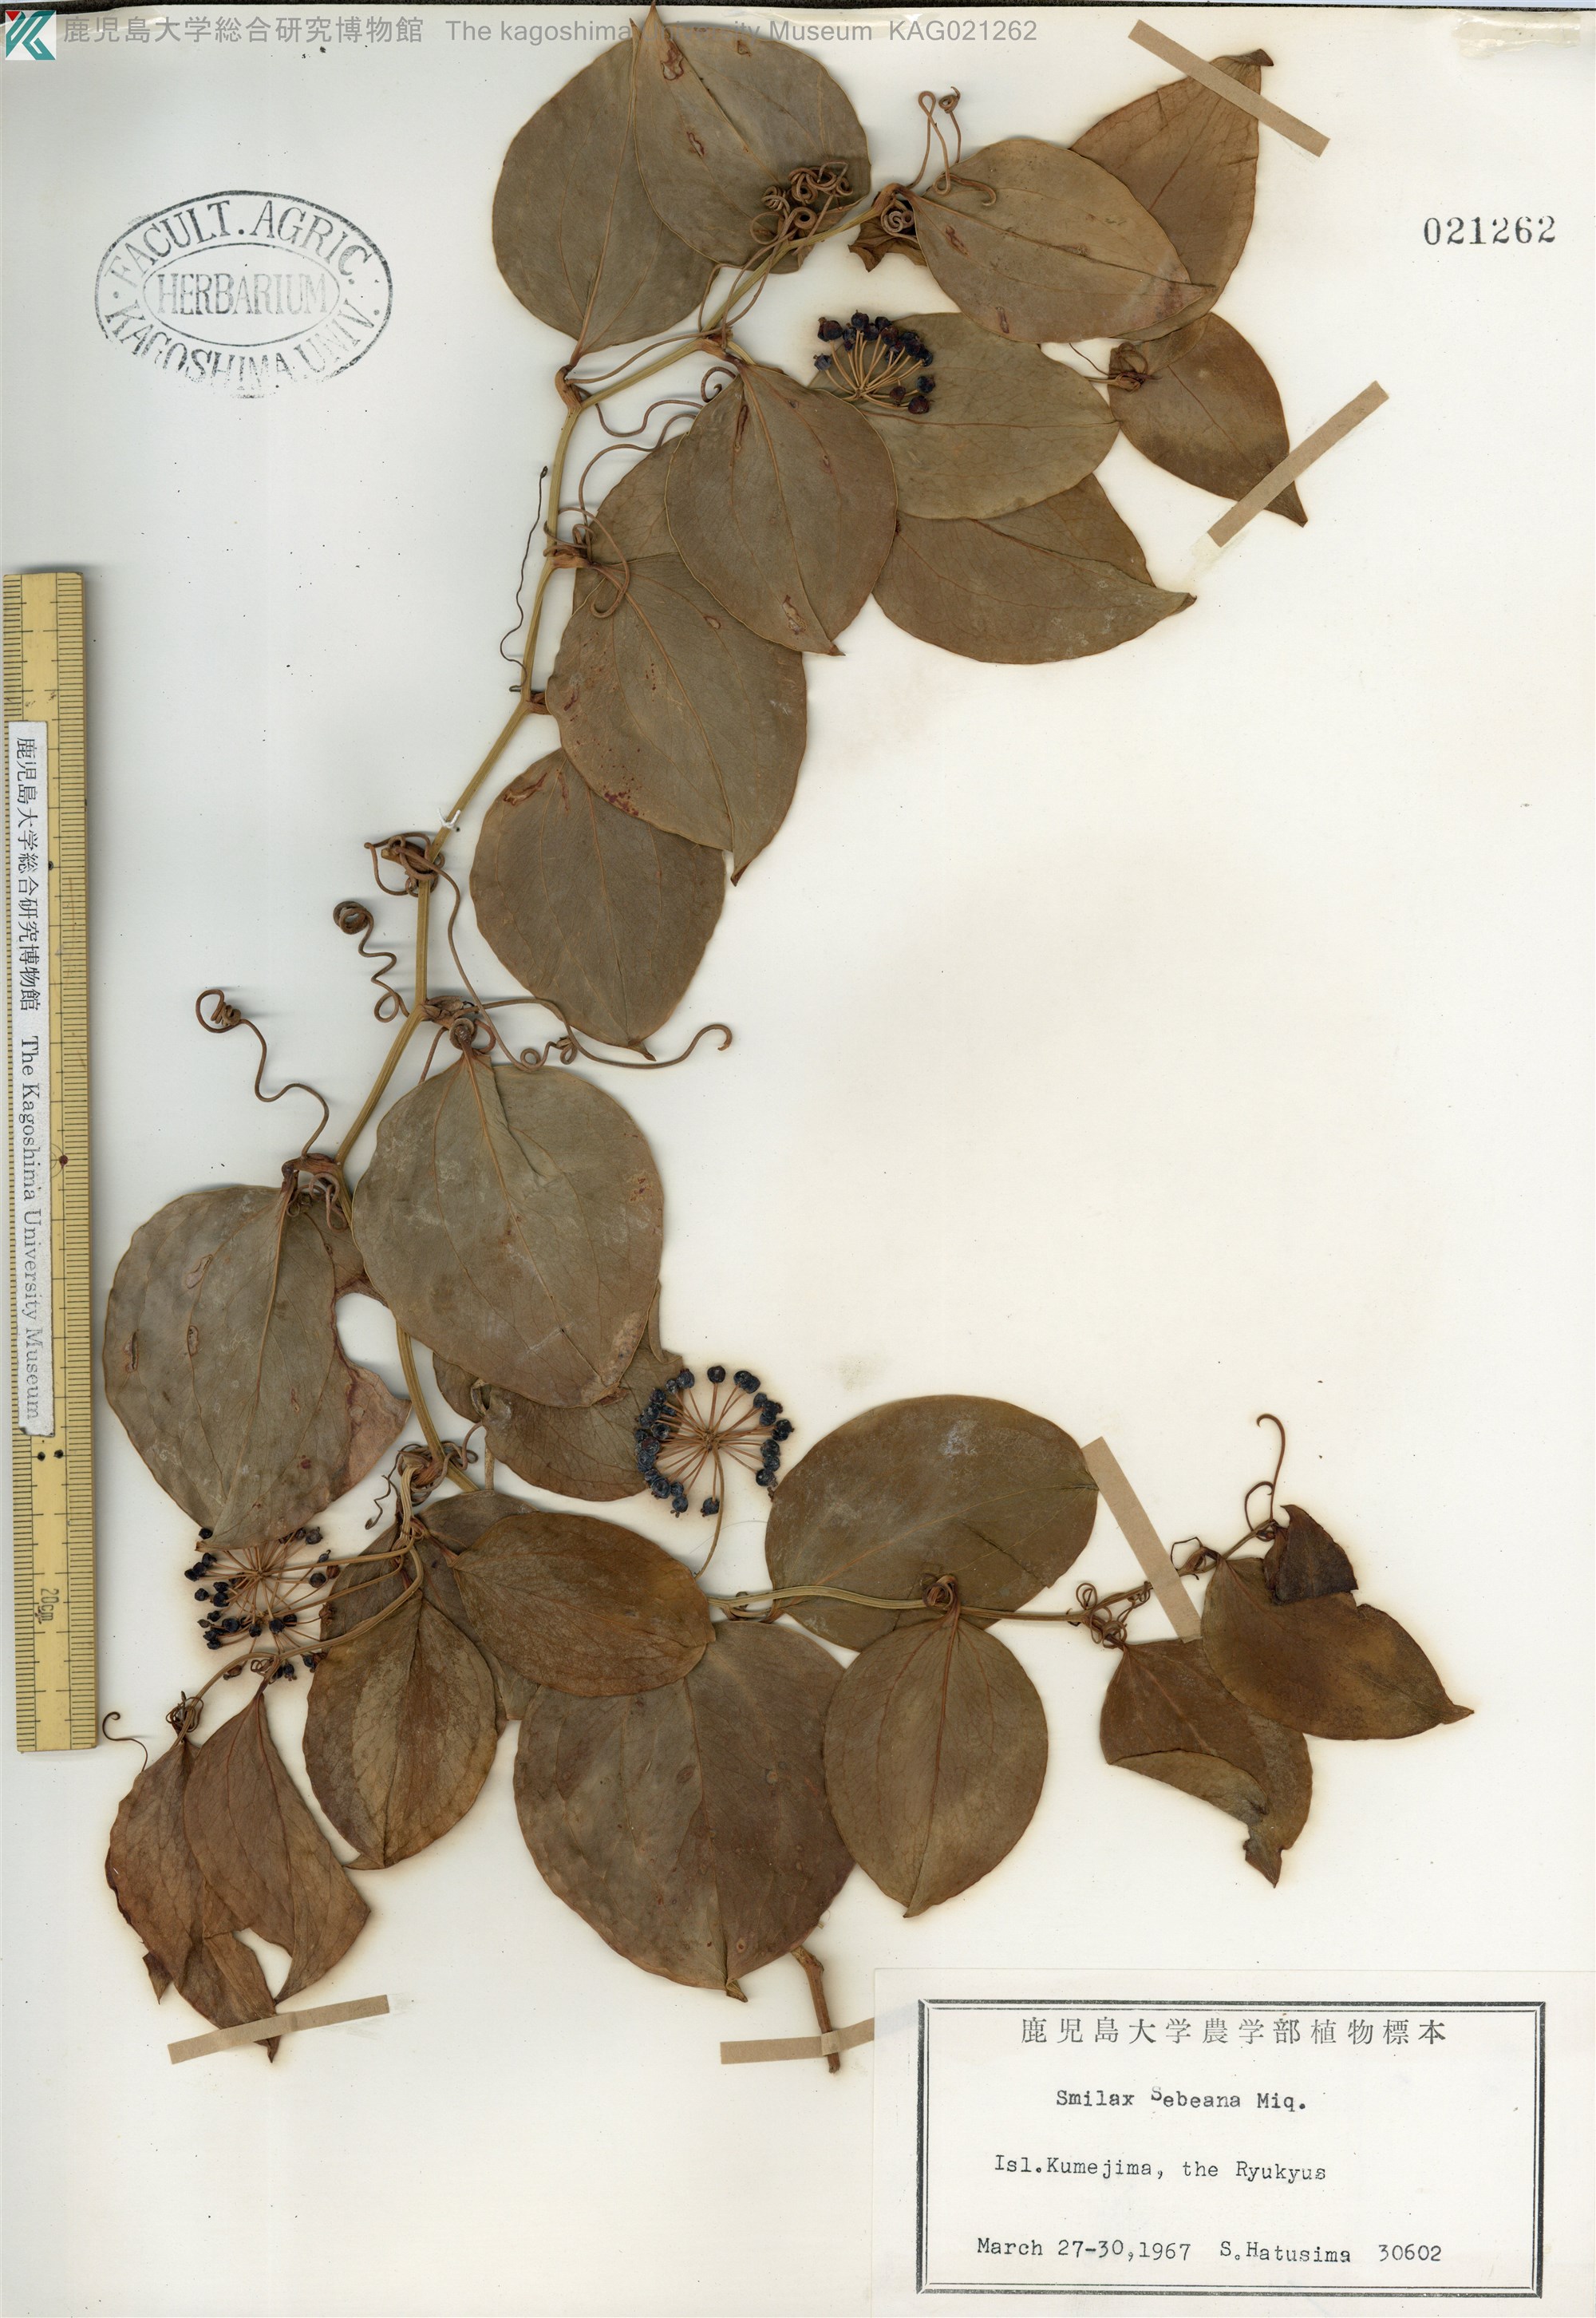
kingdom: Plantae
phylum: Tracheophyta
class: Liliopsida
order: Liliales
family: Smilacaceae
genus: Smilax
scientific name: Smilax sebeana
